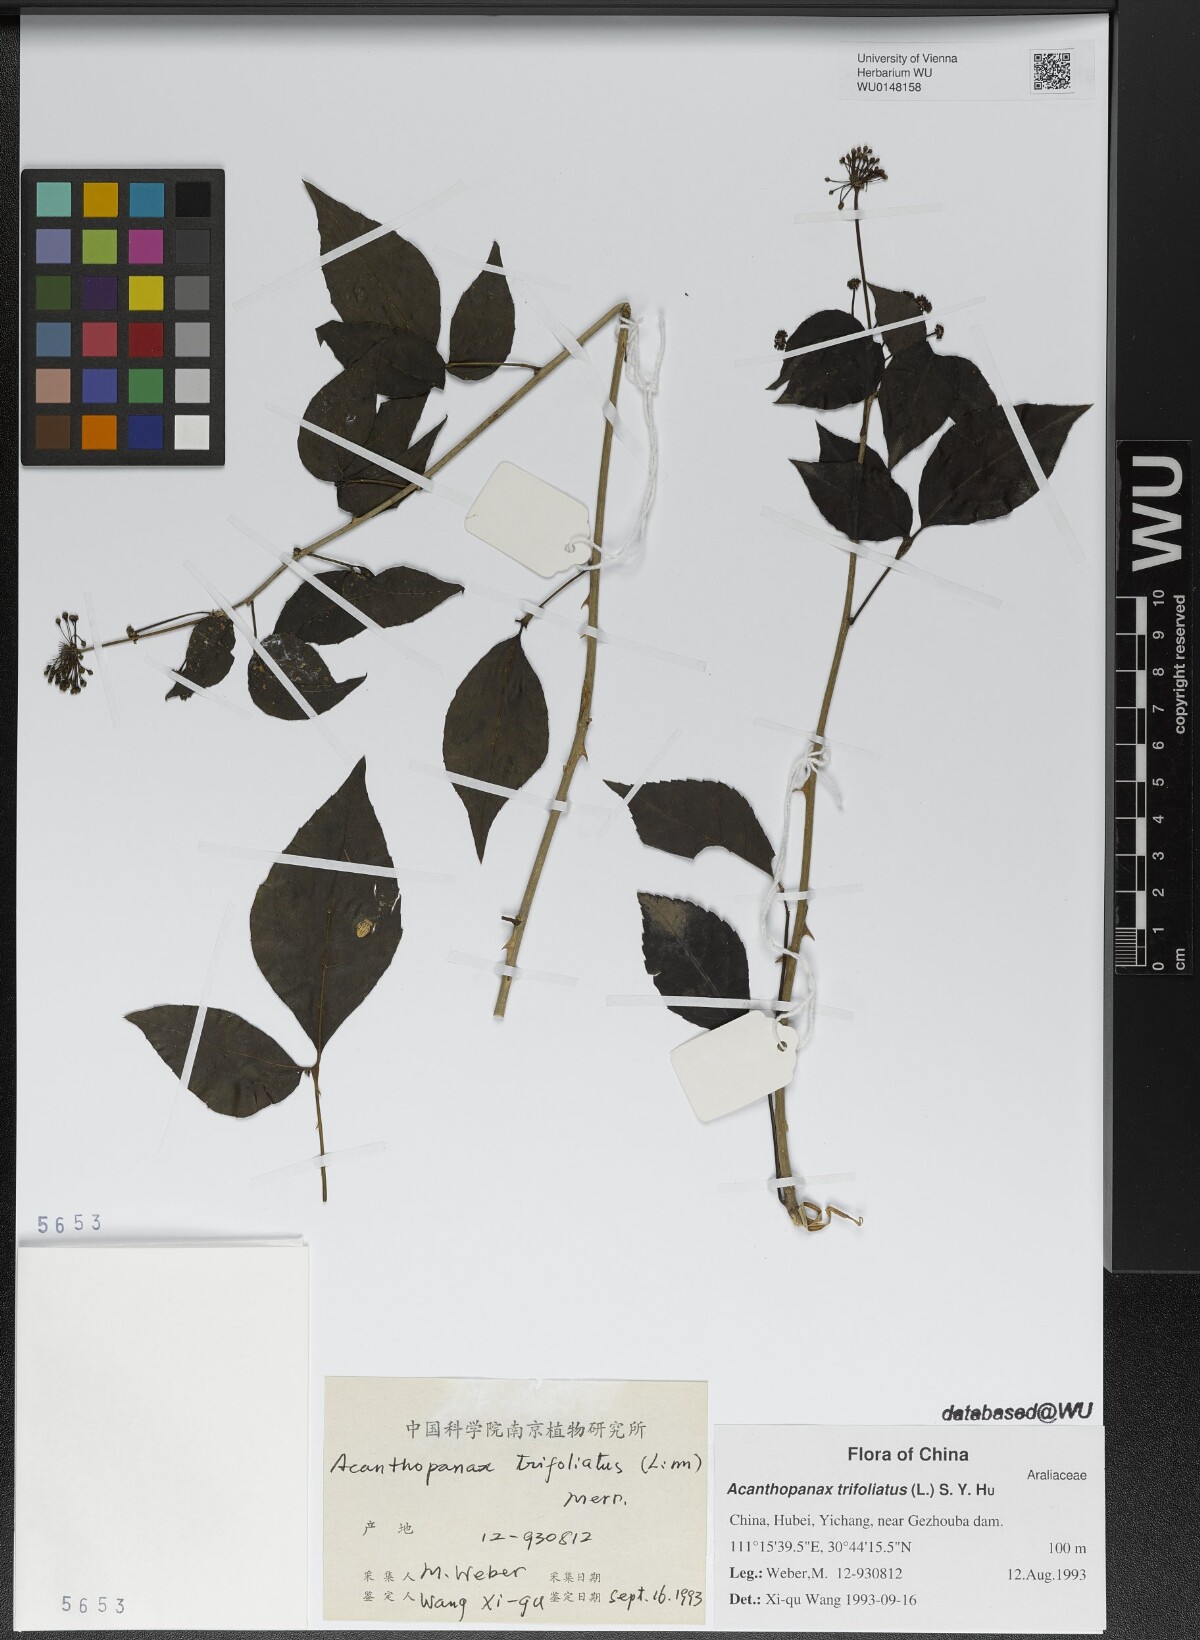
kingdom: Plantae
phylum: Tracheophyta
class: Magnoliopsida
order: Apiales
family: Araliaceae
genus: Eleutherococcus
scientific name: Eleutherococcus trifoliatus
